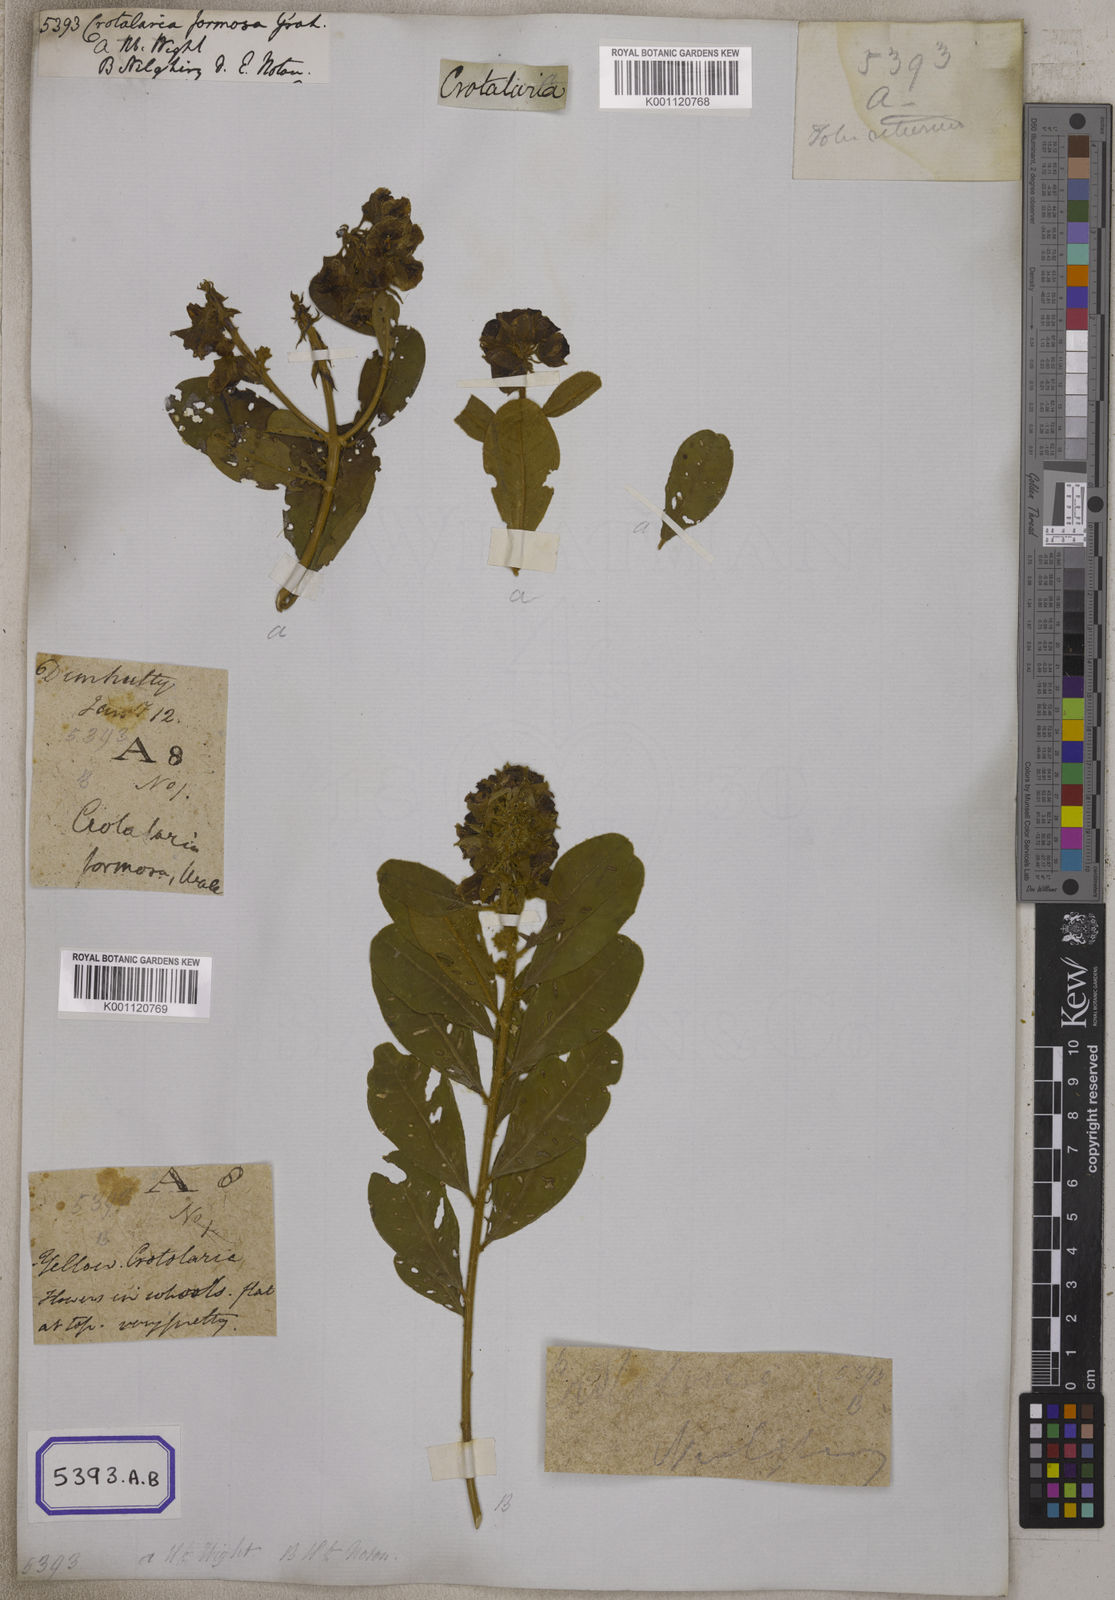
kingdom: Plantae
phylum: Tracheophyta
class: Magnoliopsida
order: Fabales
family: Fabaceae
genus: Crotalaria
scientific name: Crotalaria
